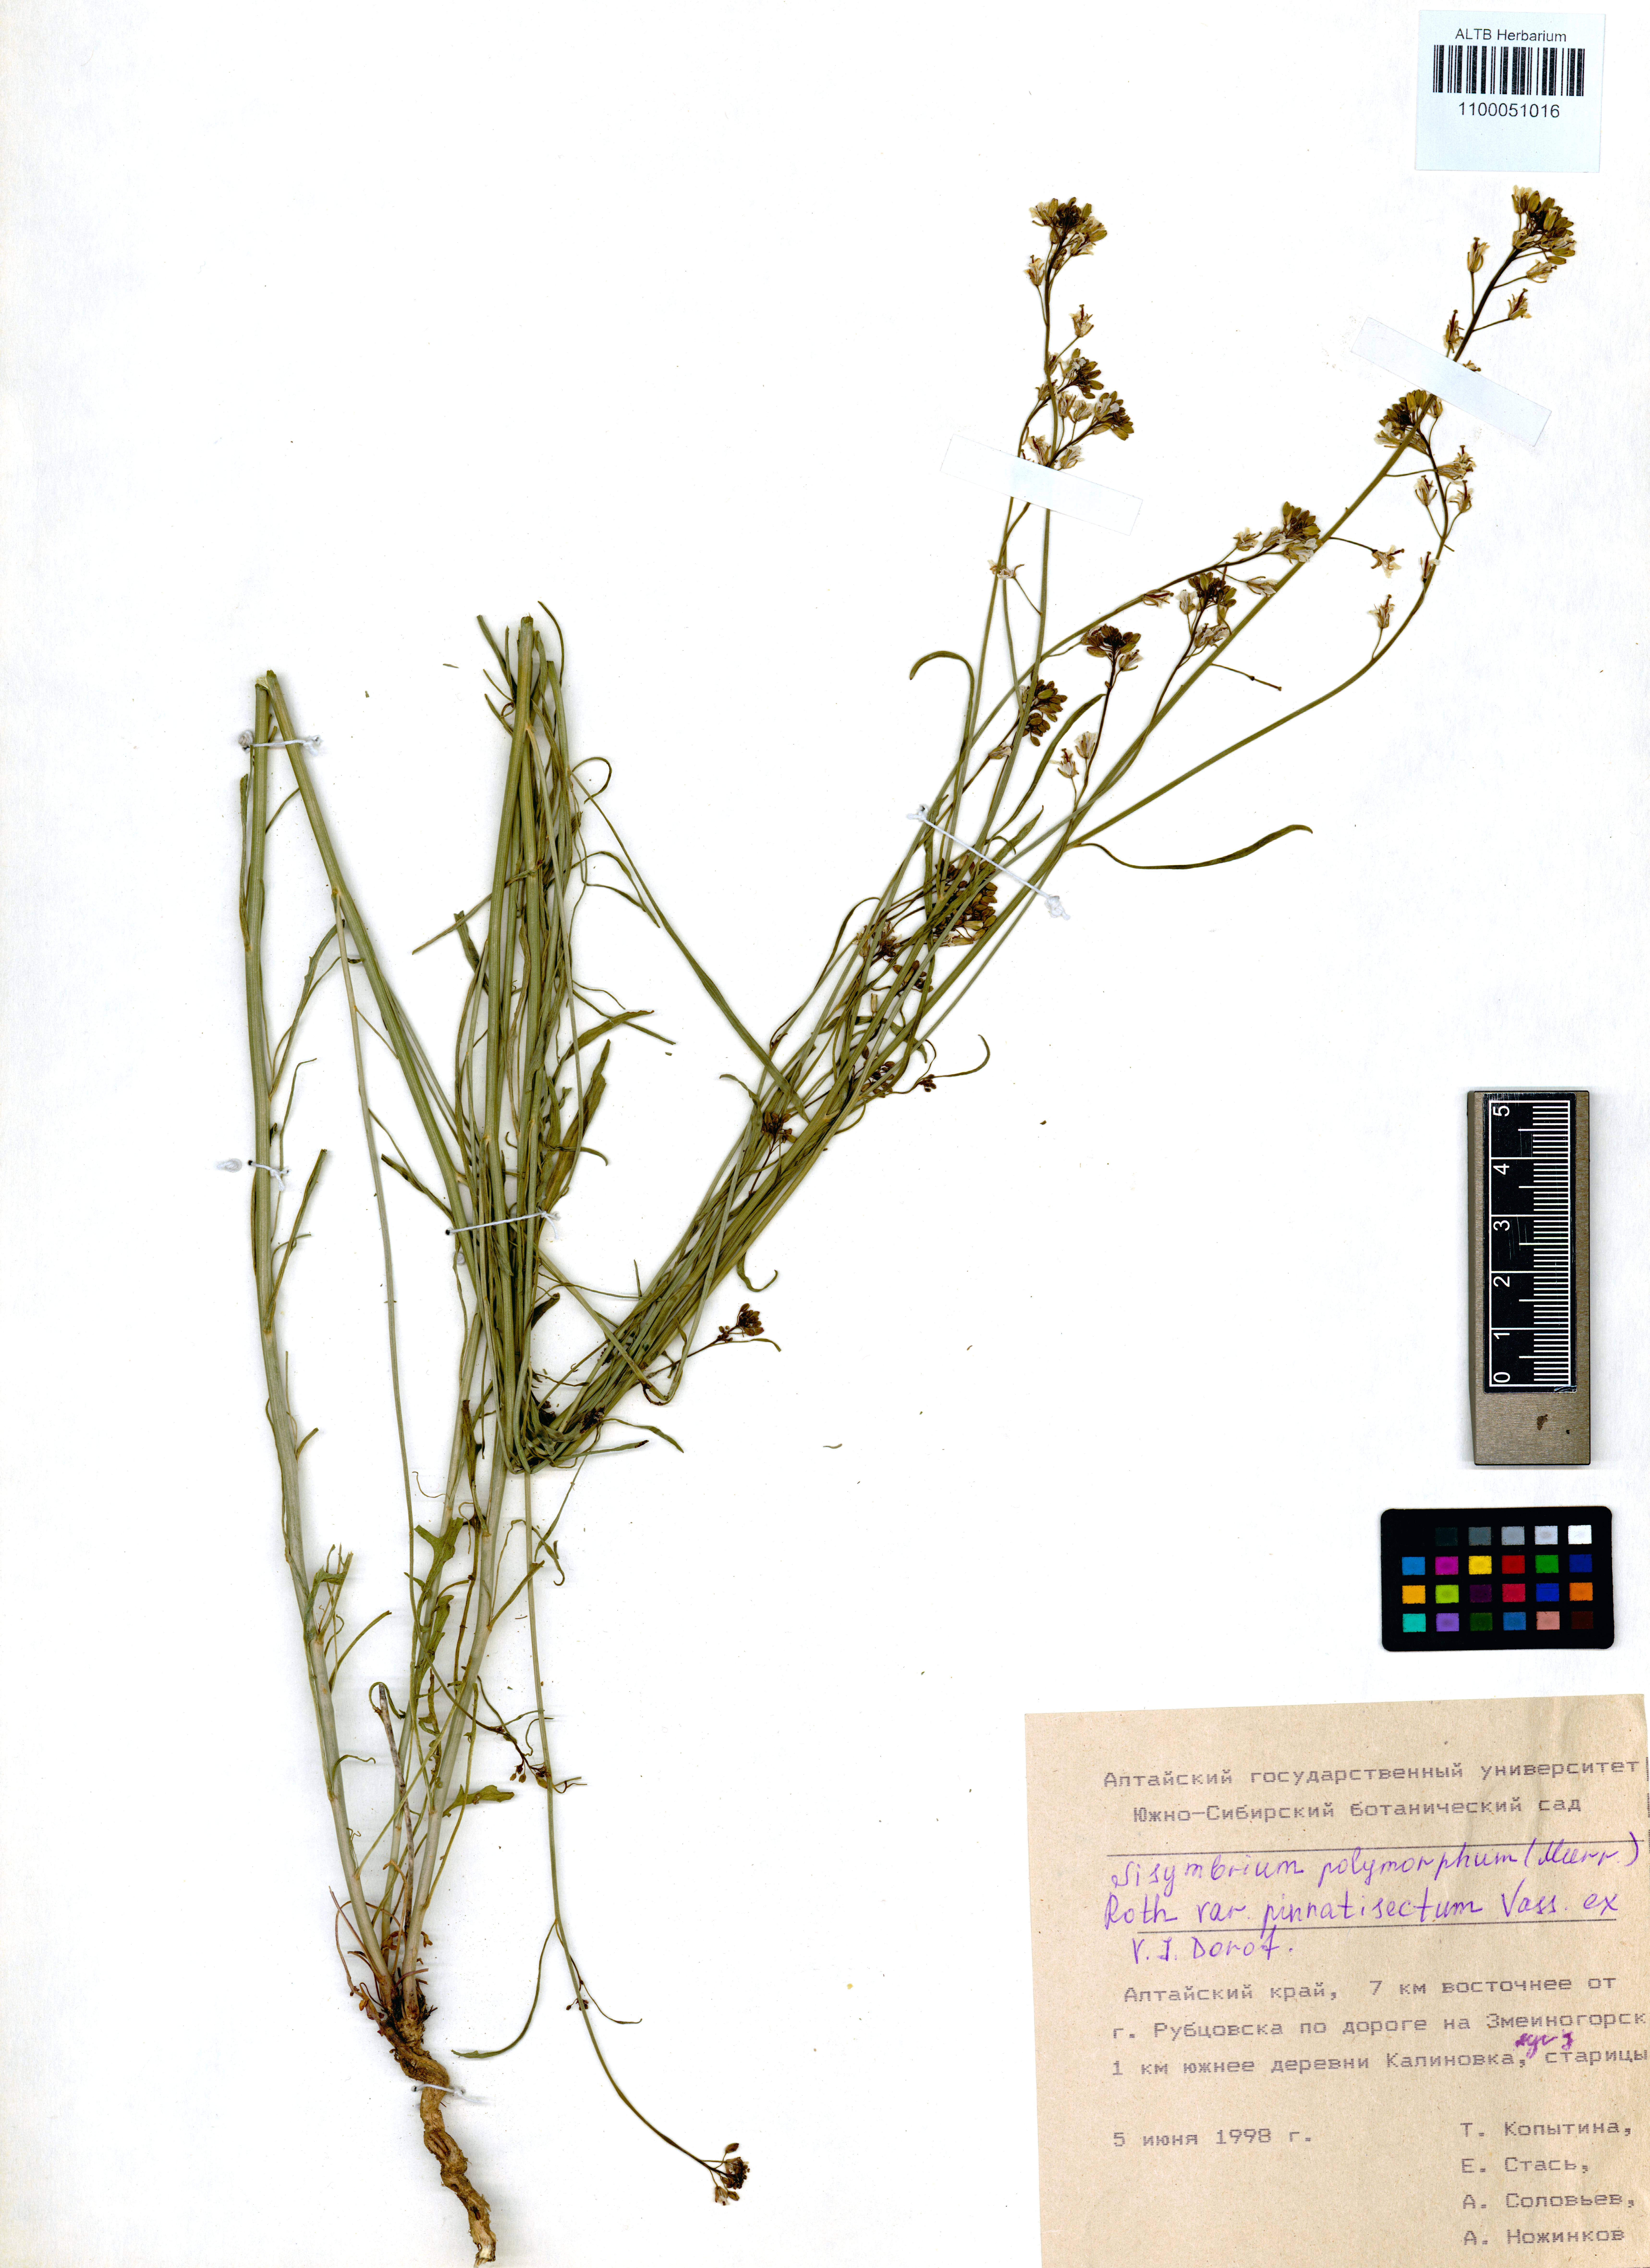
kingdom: Plantae
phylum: Tracheophyta
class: Magnoliopsida
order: Brassicales
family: Brassicaceae
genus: Sisymbrium
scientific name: Sisymbrium polymorphum
